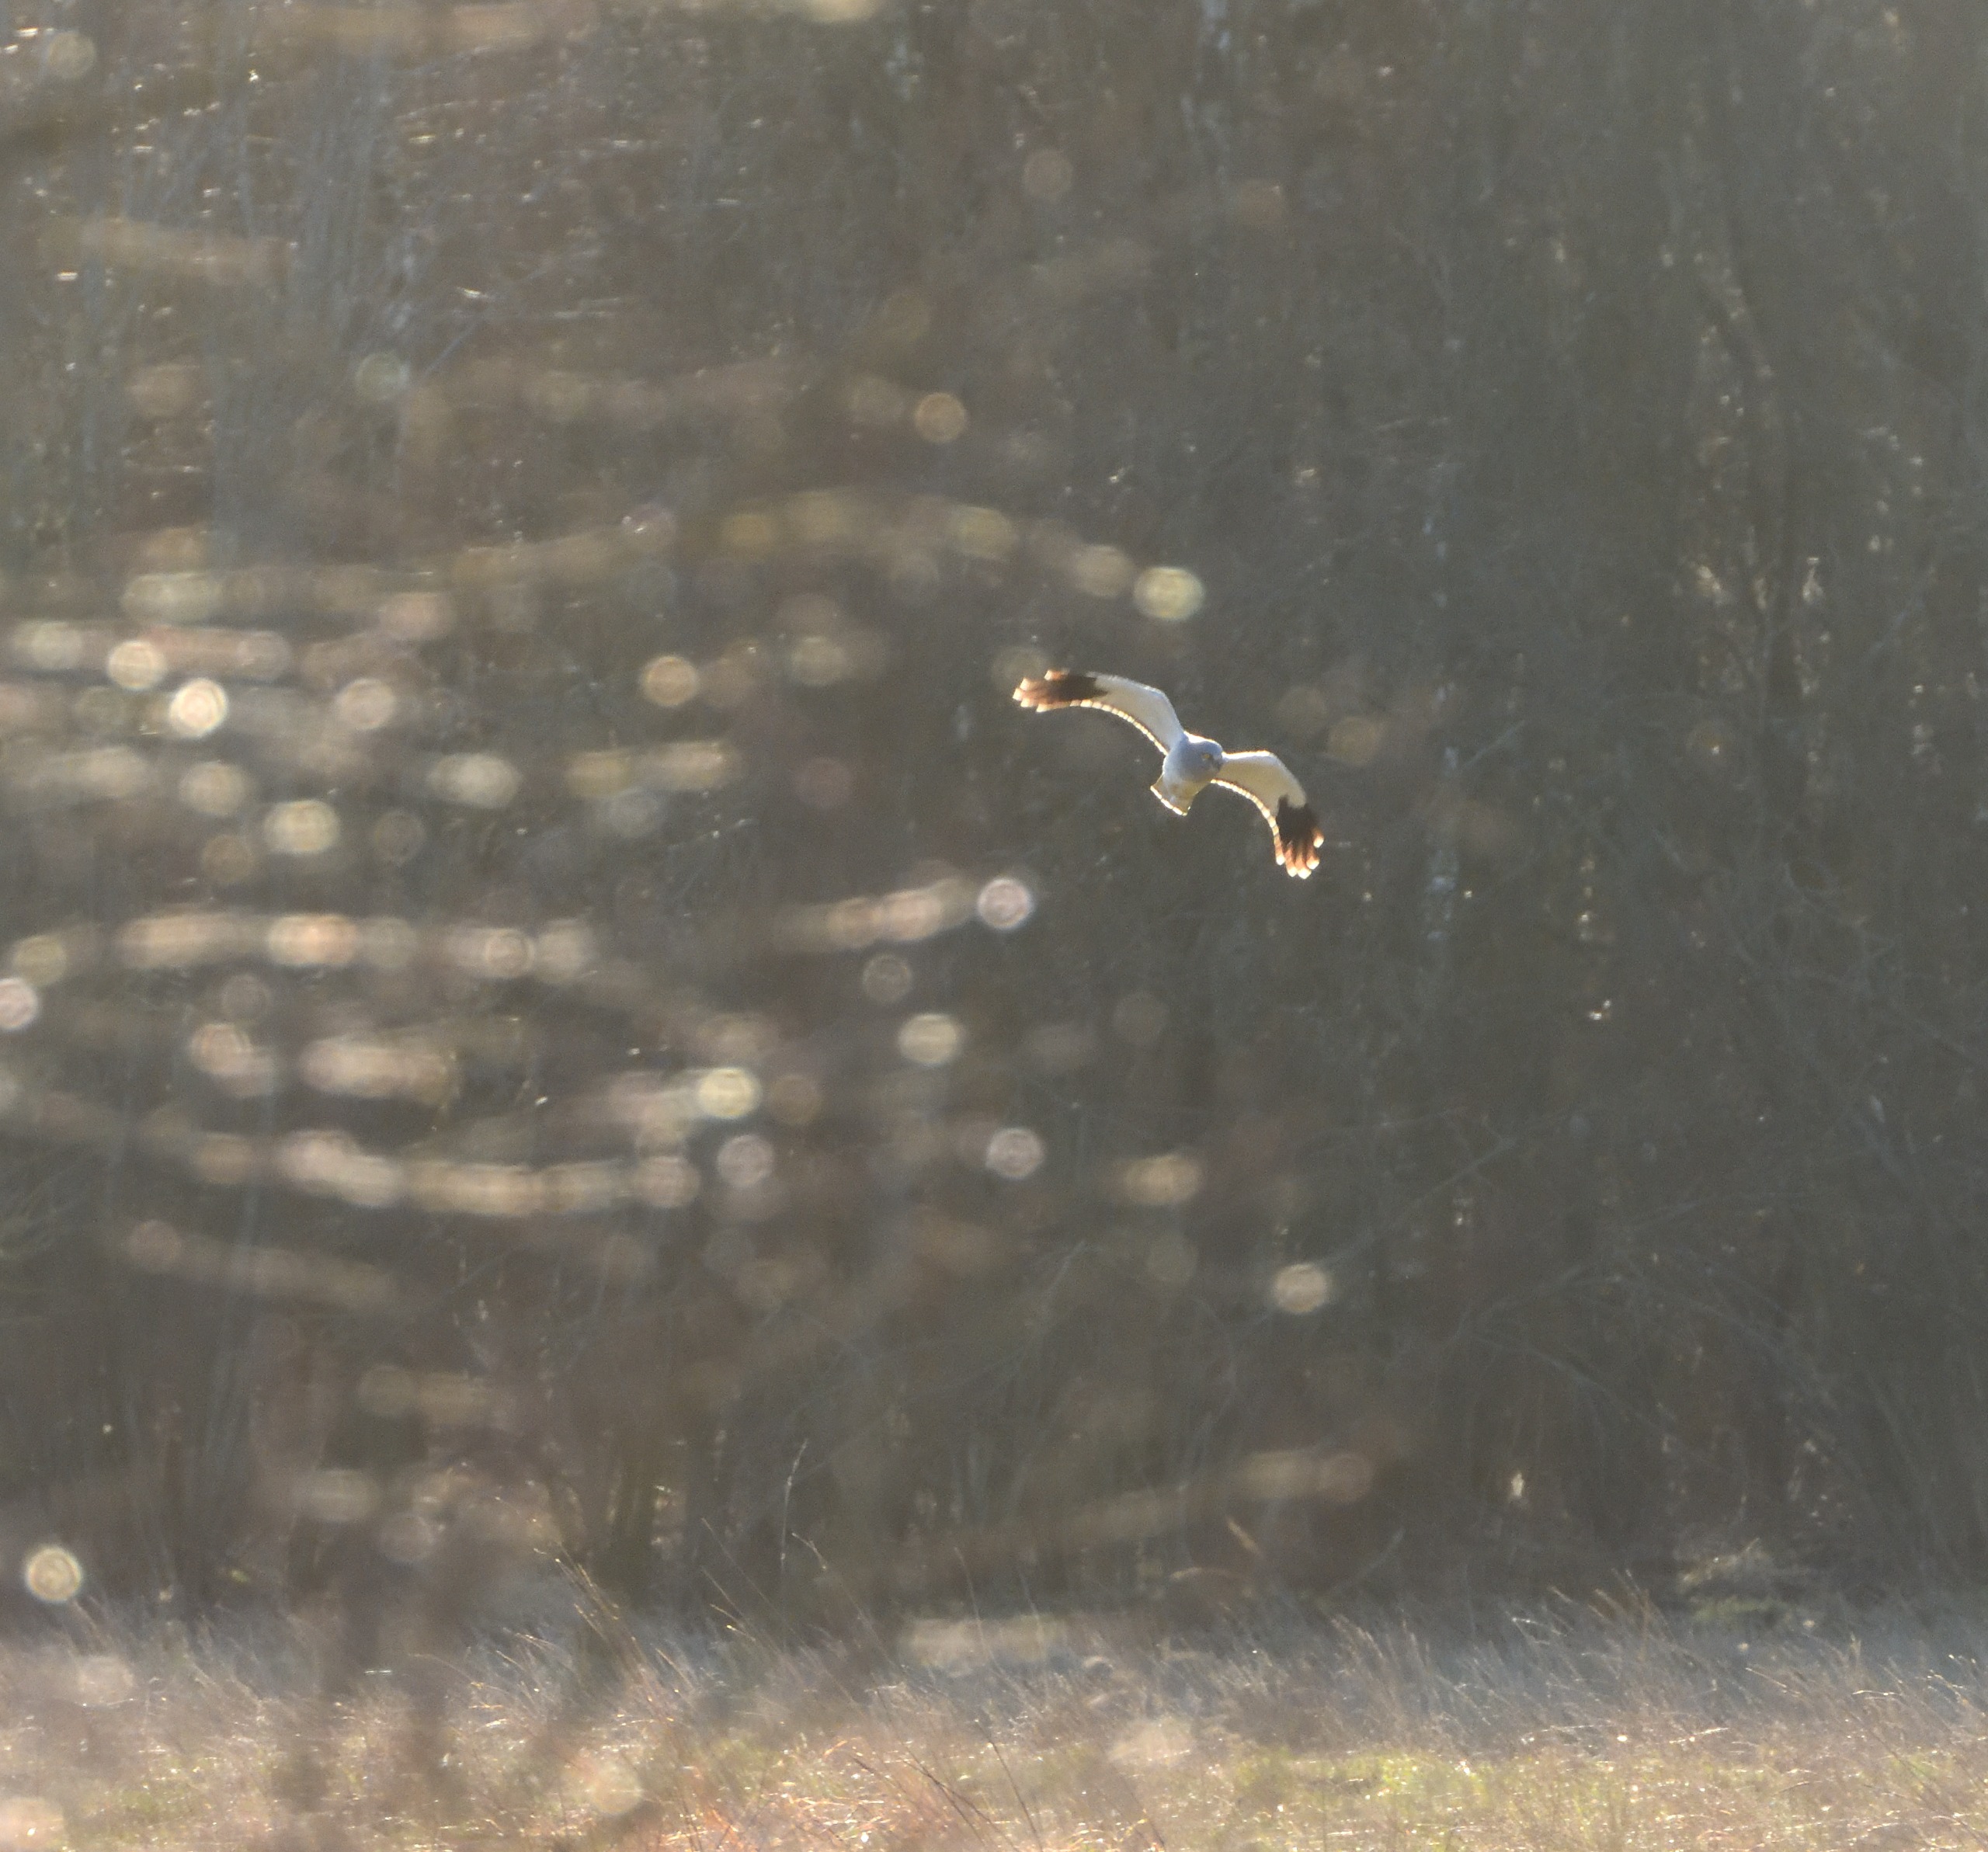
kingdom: Animalia
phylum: Chordata
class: Aves
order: Accipitriformes
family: Accipitridae
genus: Circus
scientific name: Circus cyaneus
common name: Blå kærhøg
